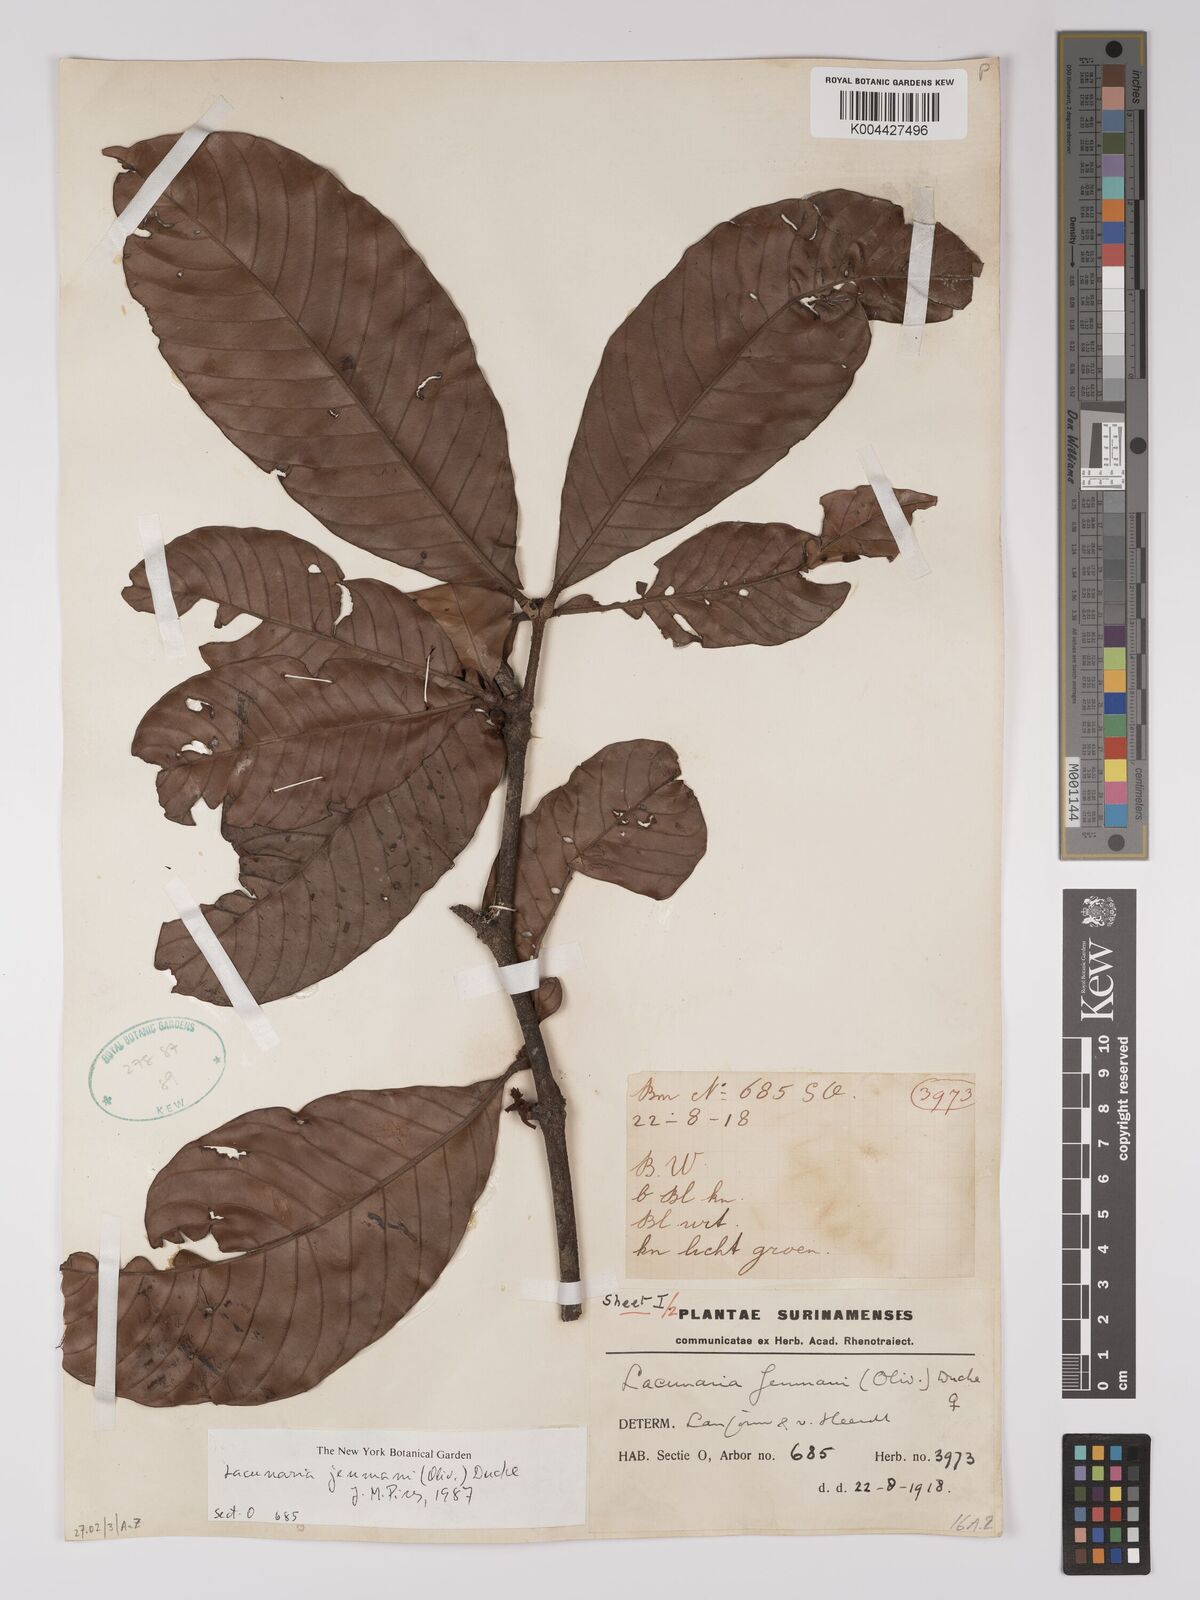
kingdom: Plantae
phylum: Tracheophyta
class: Magnoliopsida
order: Malpighiales
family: Quiinaceae
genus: Lacunaria
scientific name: Lacunaria jenmanii
